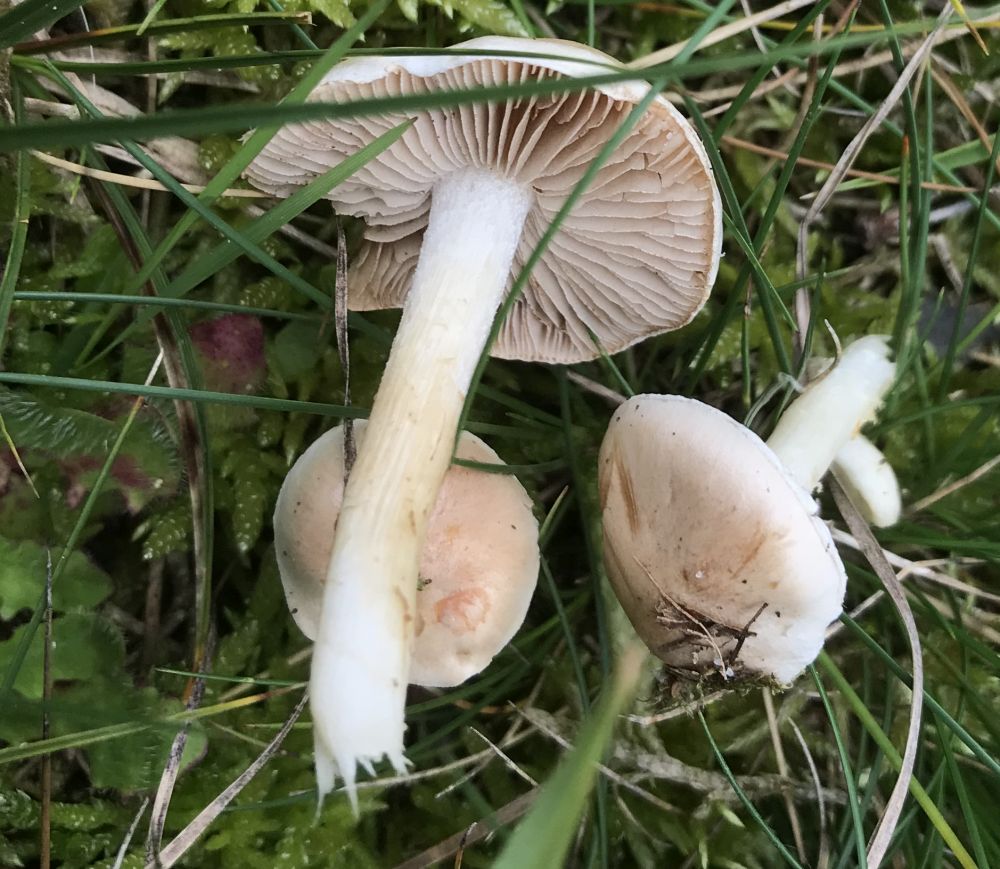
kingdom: Fungi
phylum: Basidiomycota
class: Agaricomycetes
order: Agaricales
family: Hymenogastraceae
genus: Hebeloma
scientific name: Hebeloma
